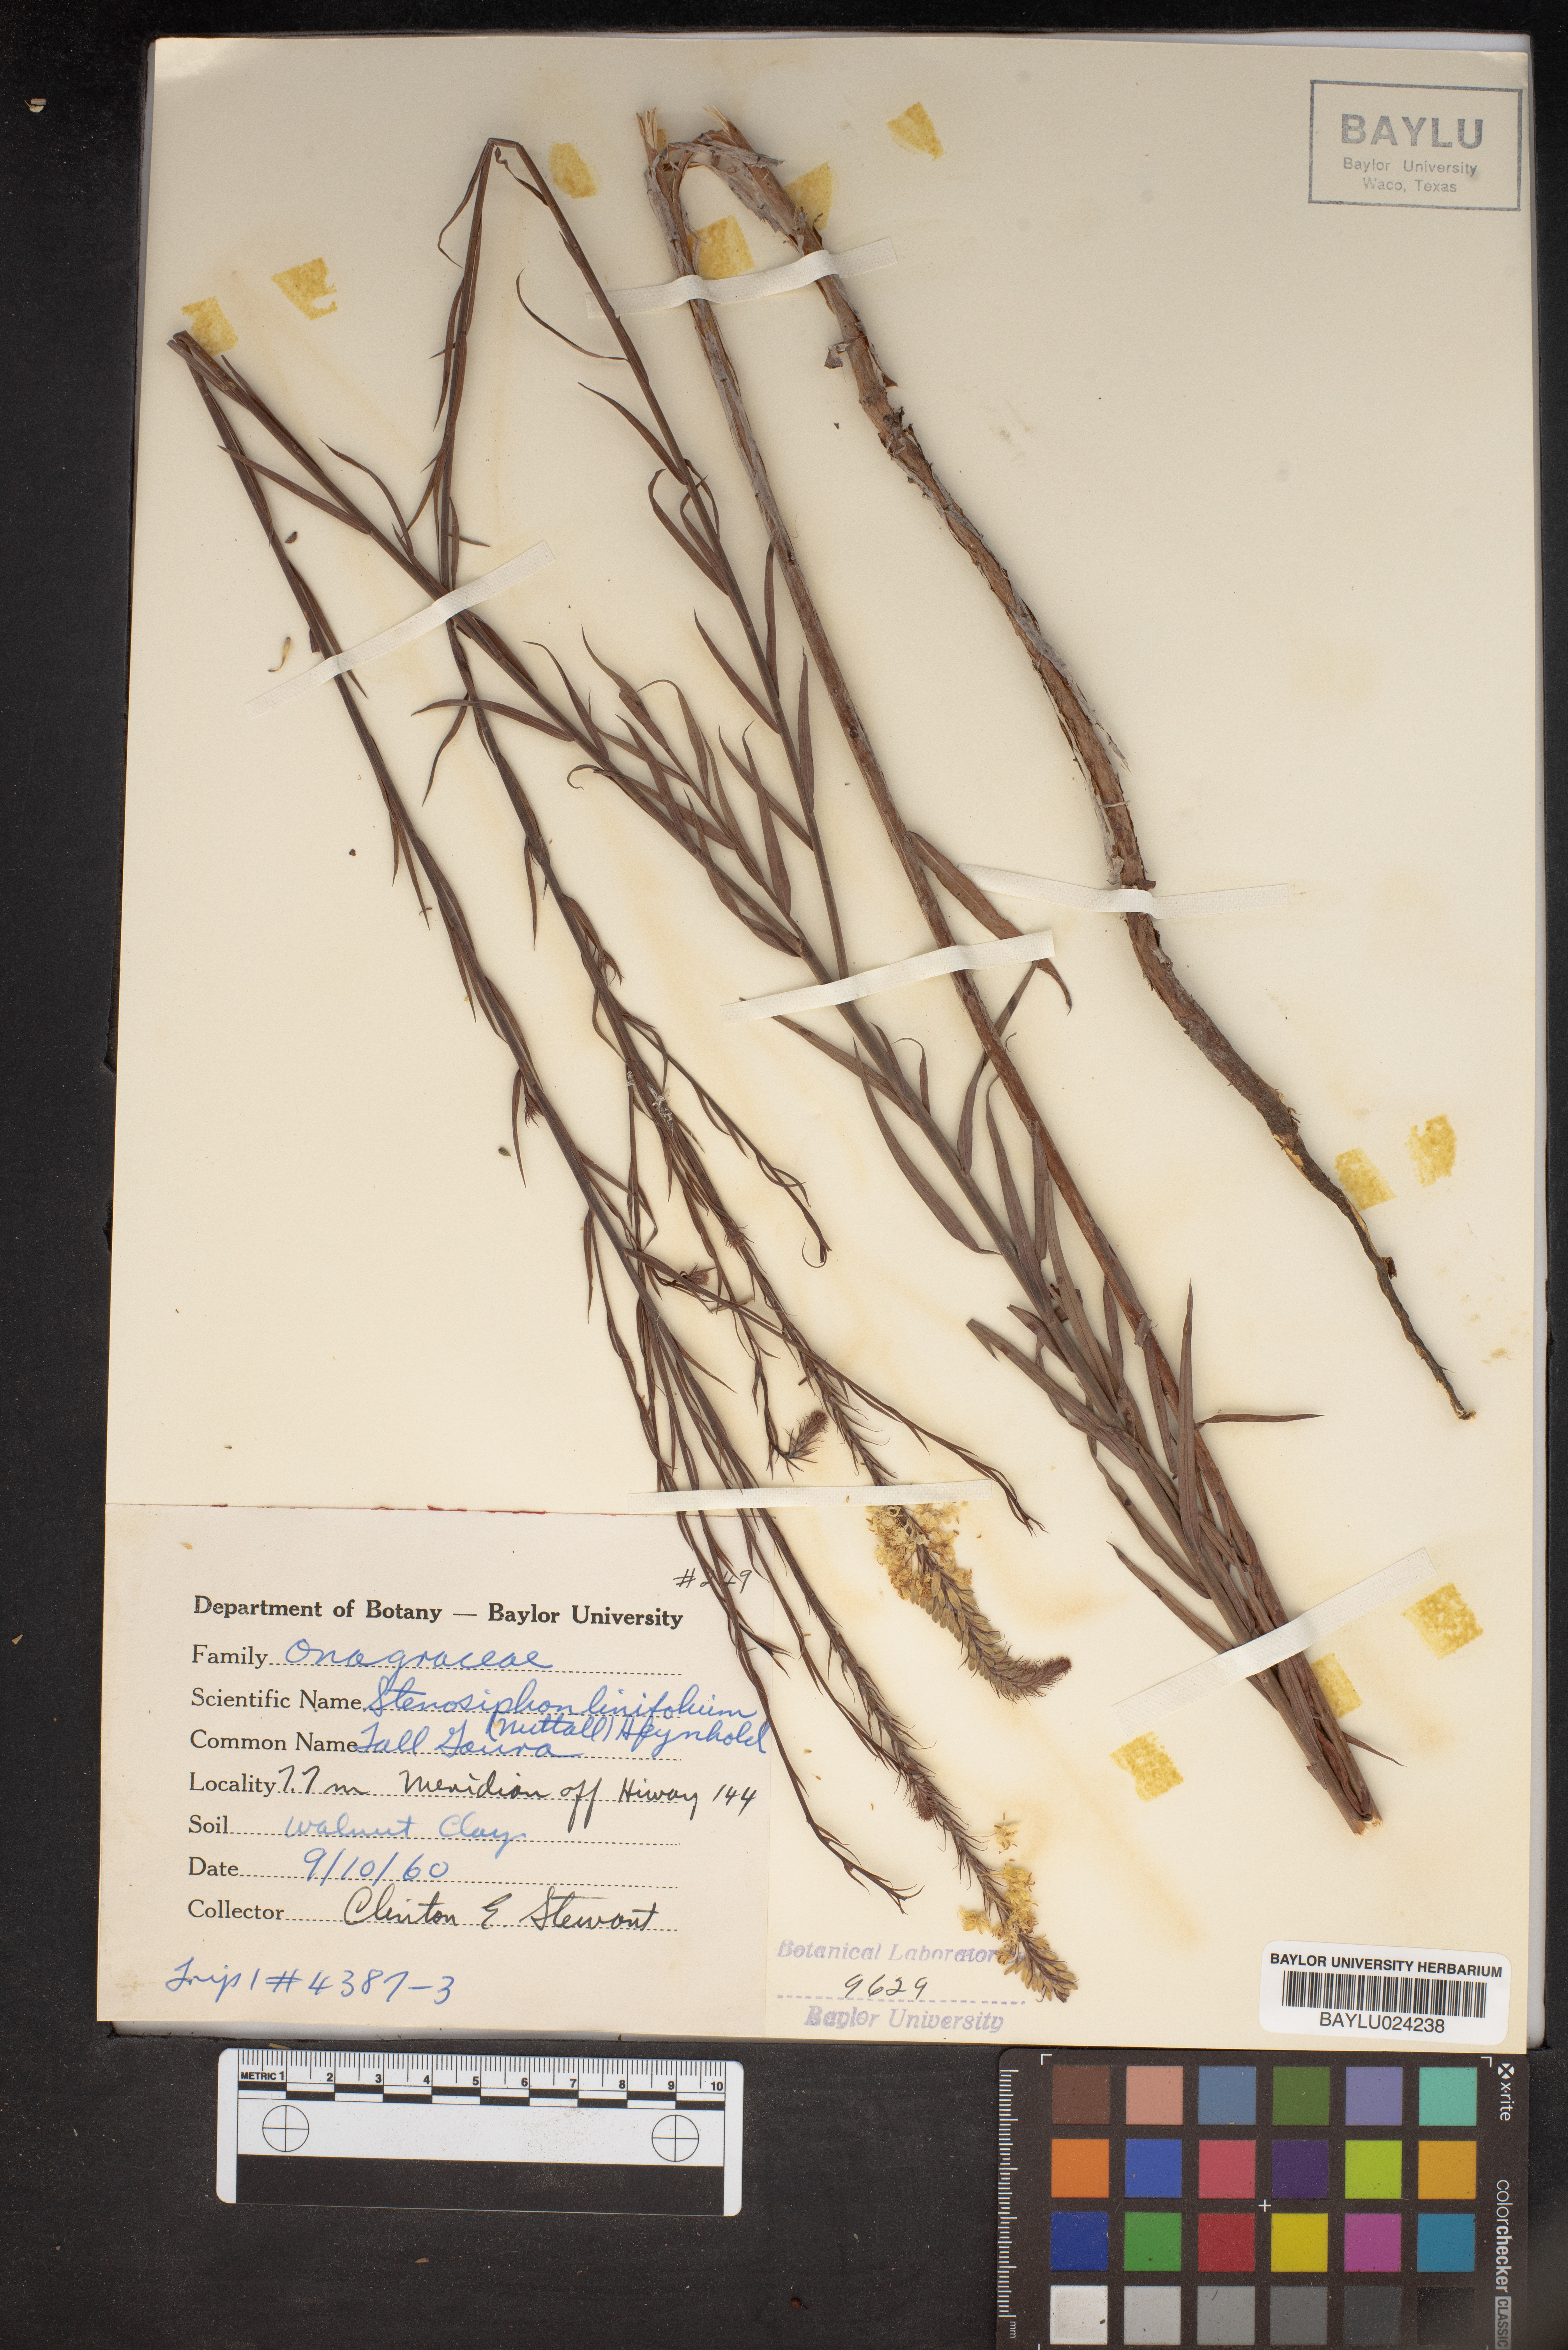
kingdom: Plantae
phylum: Tracheophyta
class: Magnoliopsida
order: Myrtales
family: Onagraceae
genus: Oenothera
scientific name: Oenothera glaucifolia
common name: False gaura
